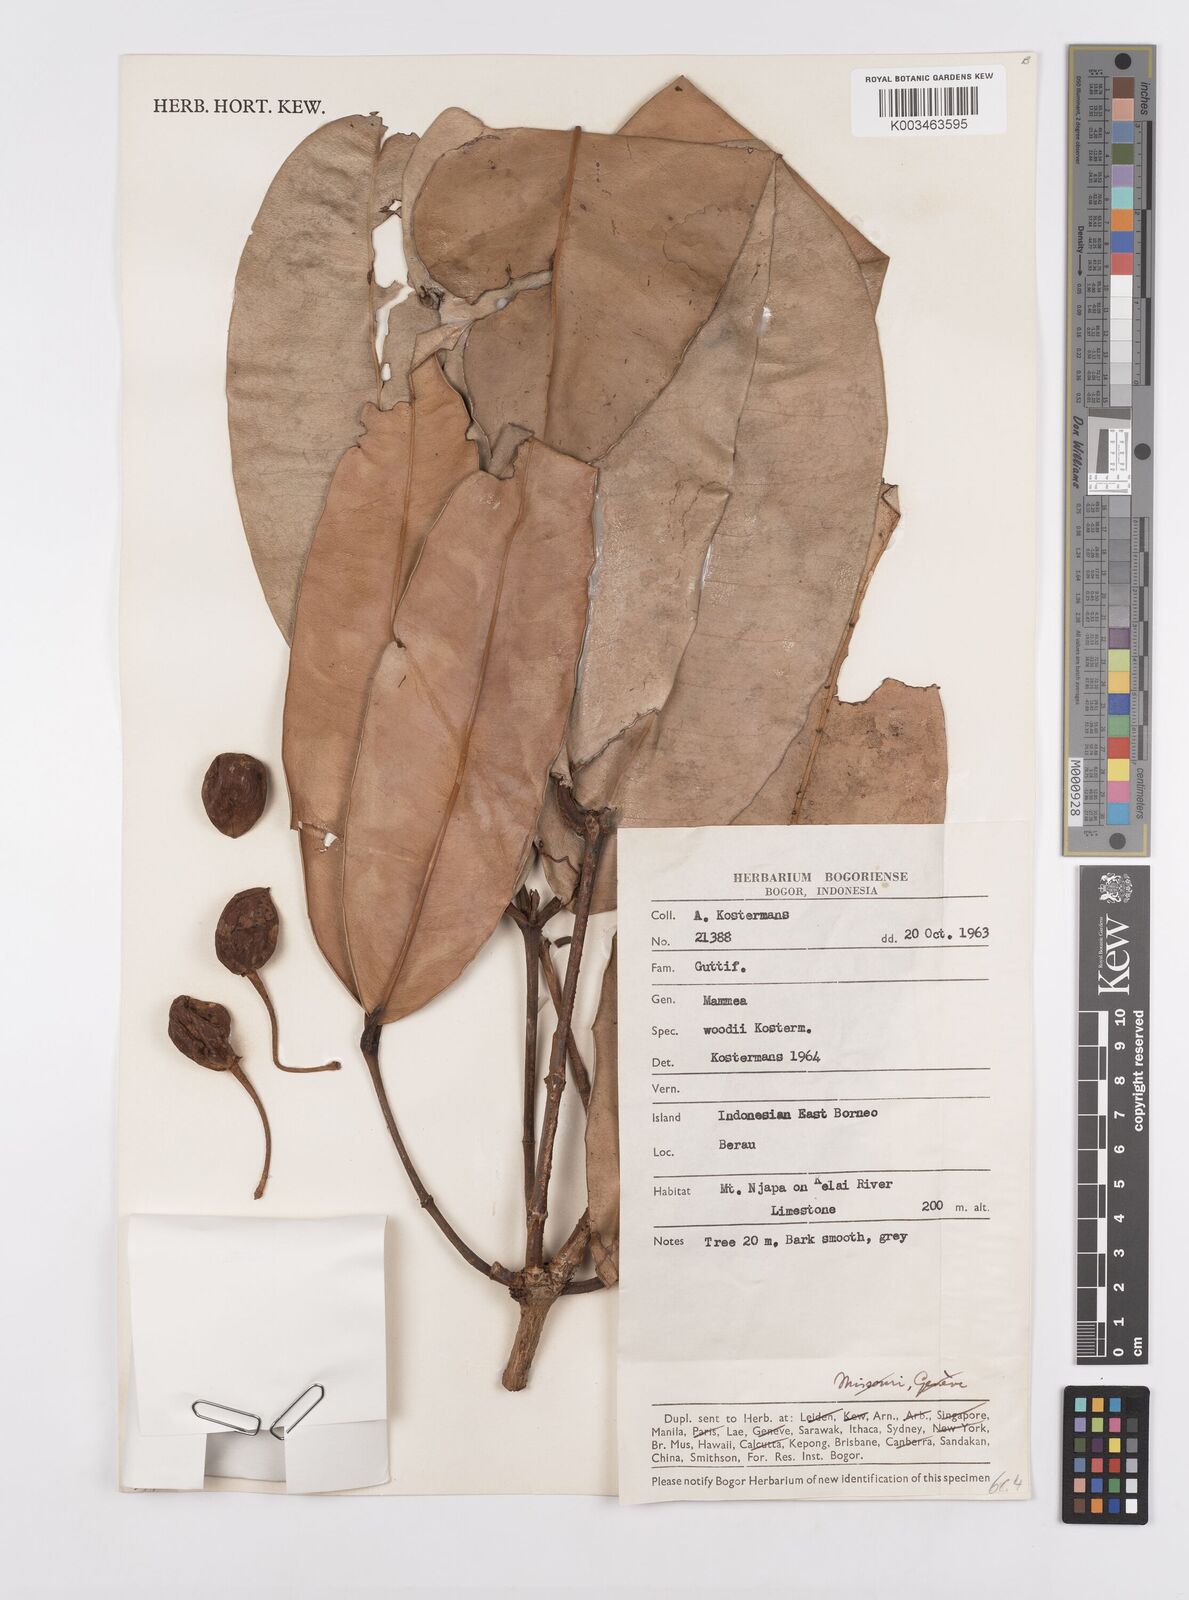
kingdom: Plantae
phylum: Tracheophyta
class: Magnoliopsida
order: Malpighiales
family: Calophyllaceae
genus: Mammea
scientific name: Mammea woodii
